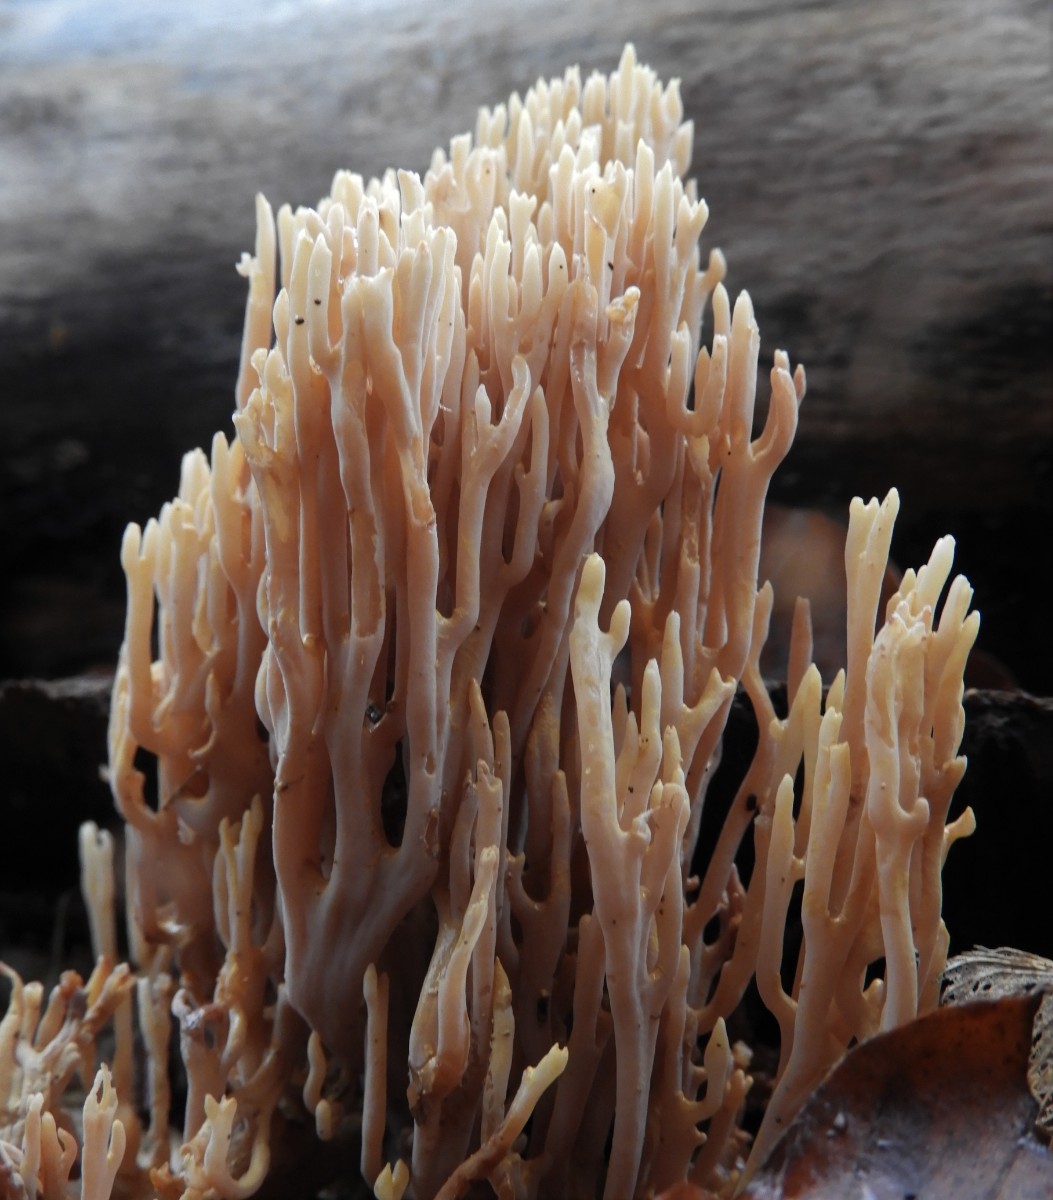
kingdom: Fungi
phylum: Basidiomycota
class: Agaricomycetes
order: Gomphales
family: Gomphaceae
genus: Ramaria
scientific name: Ramaria stricta
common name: rank koralsvamp
